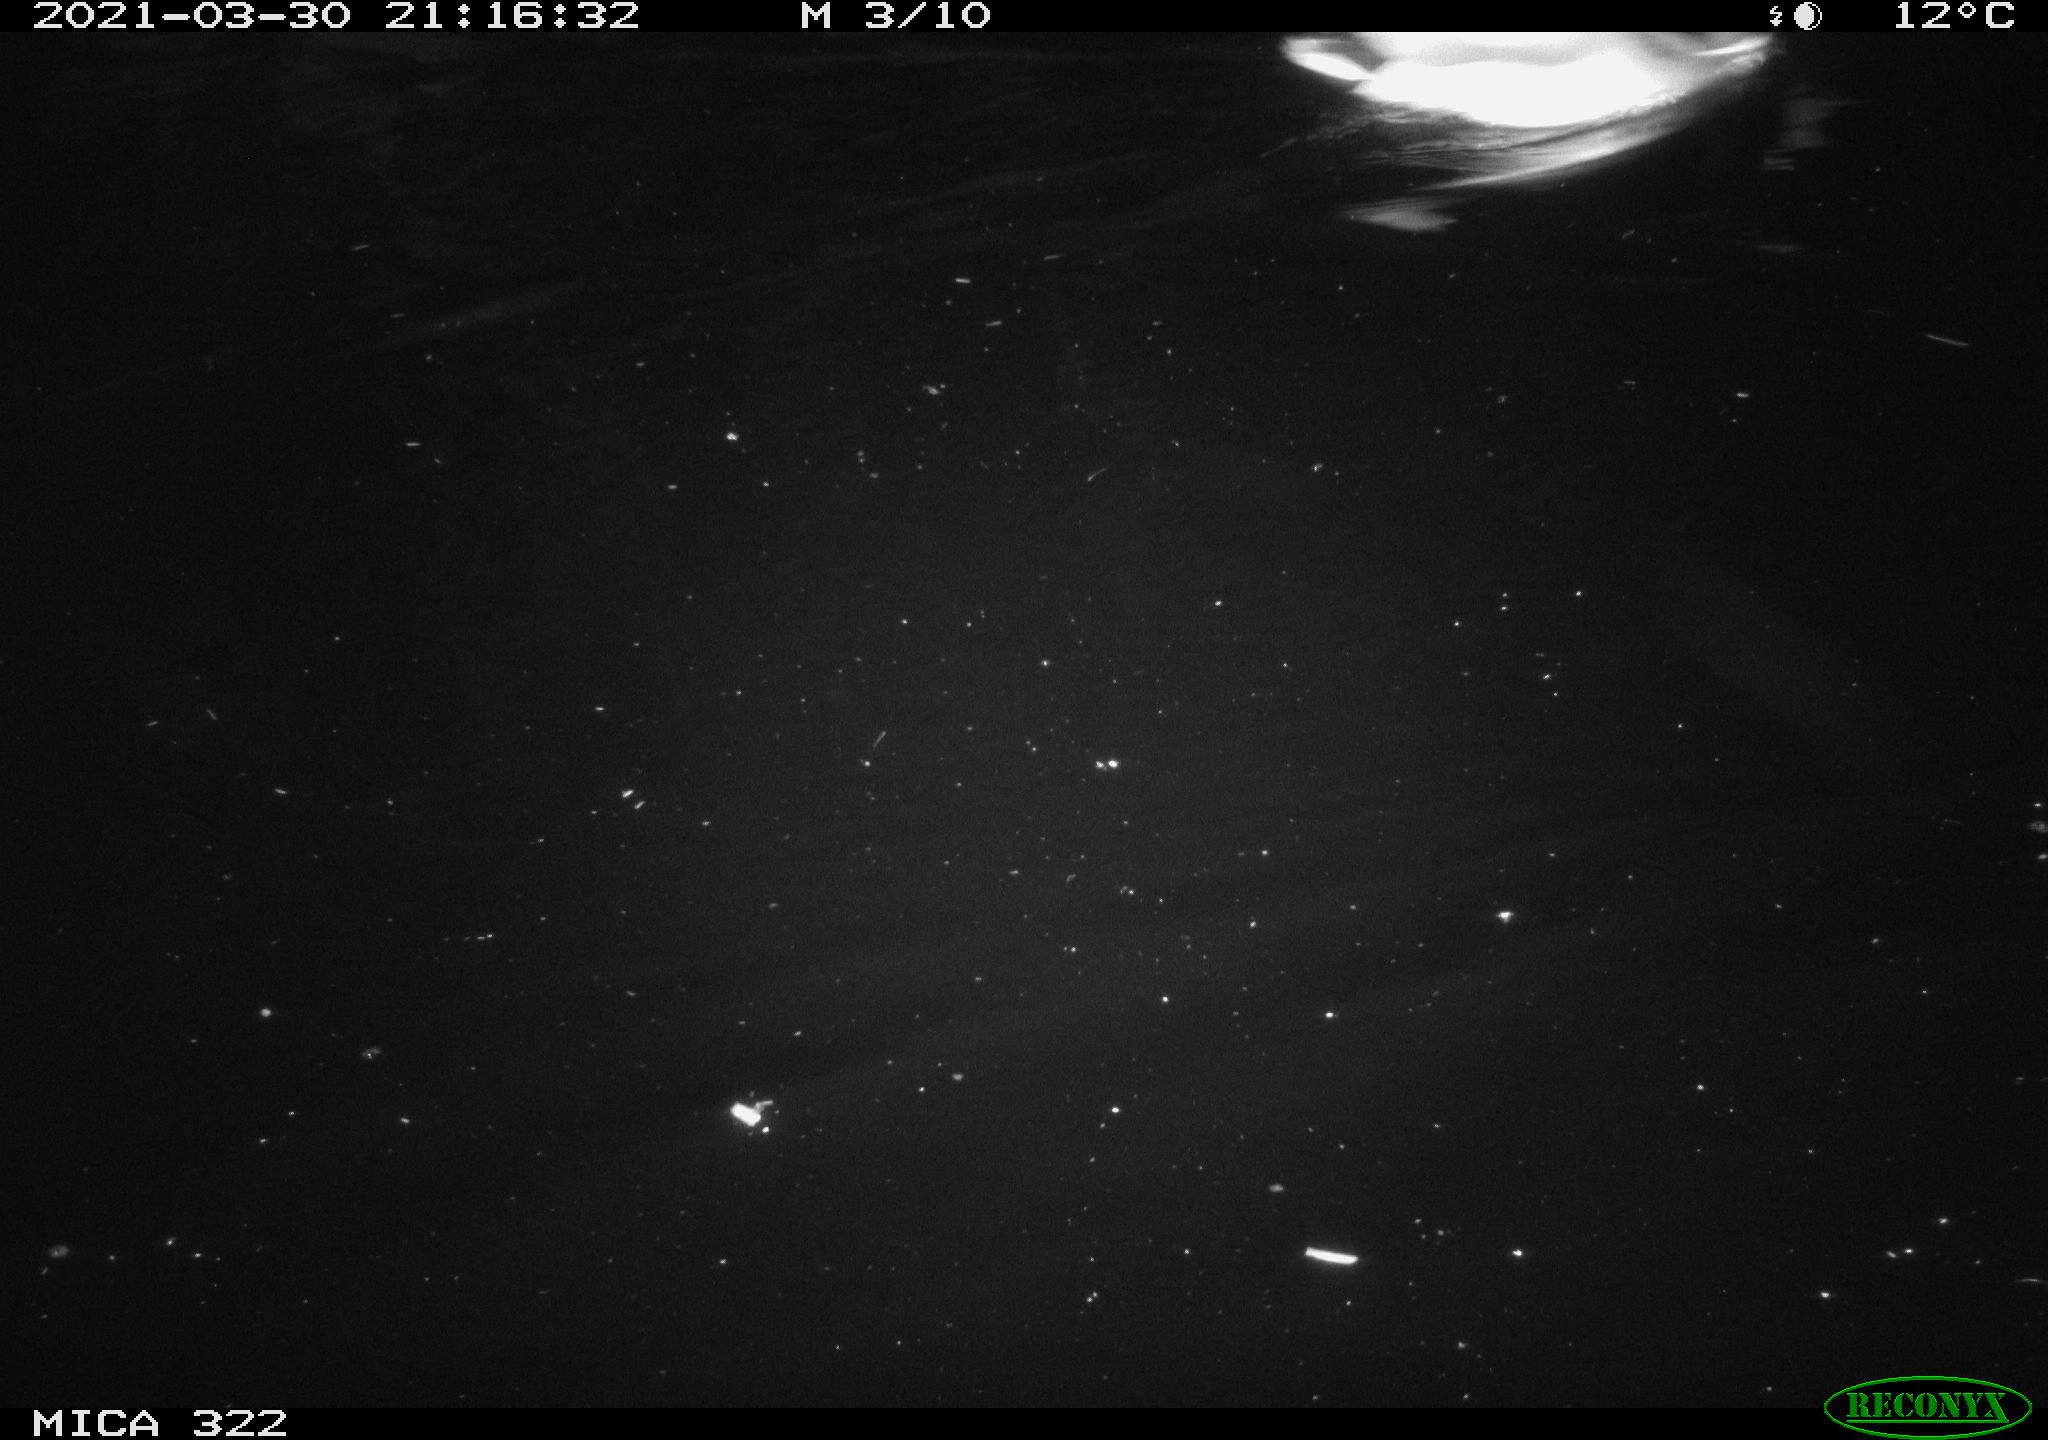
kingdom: Animalia
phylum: Chordata
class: Aves
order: Anseriformes
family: Anatidae
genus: Anas
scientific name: Anas platyrhynchos
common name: Mallard
